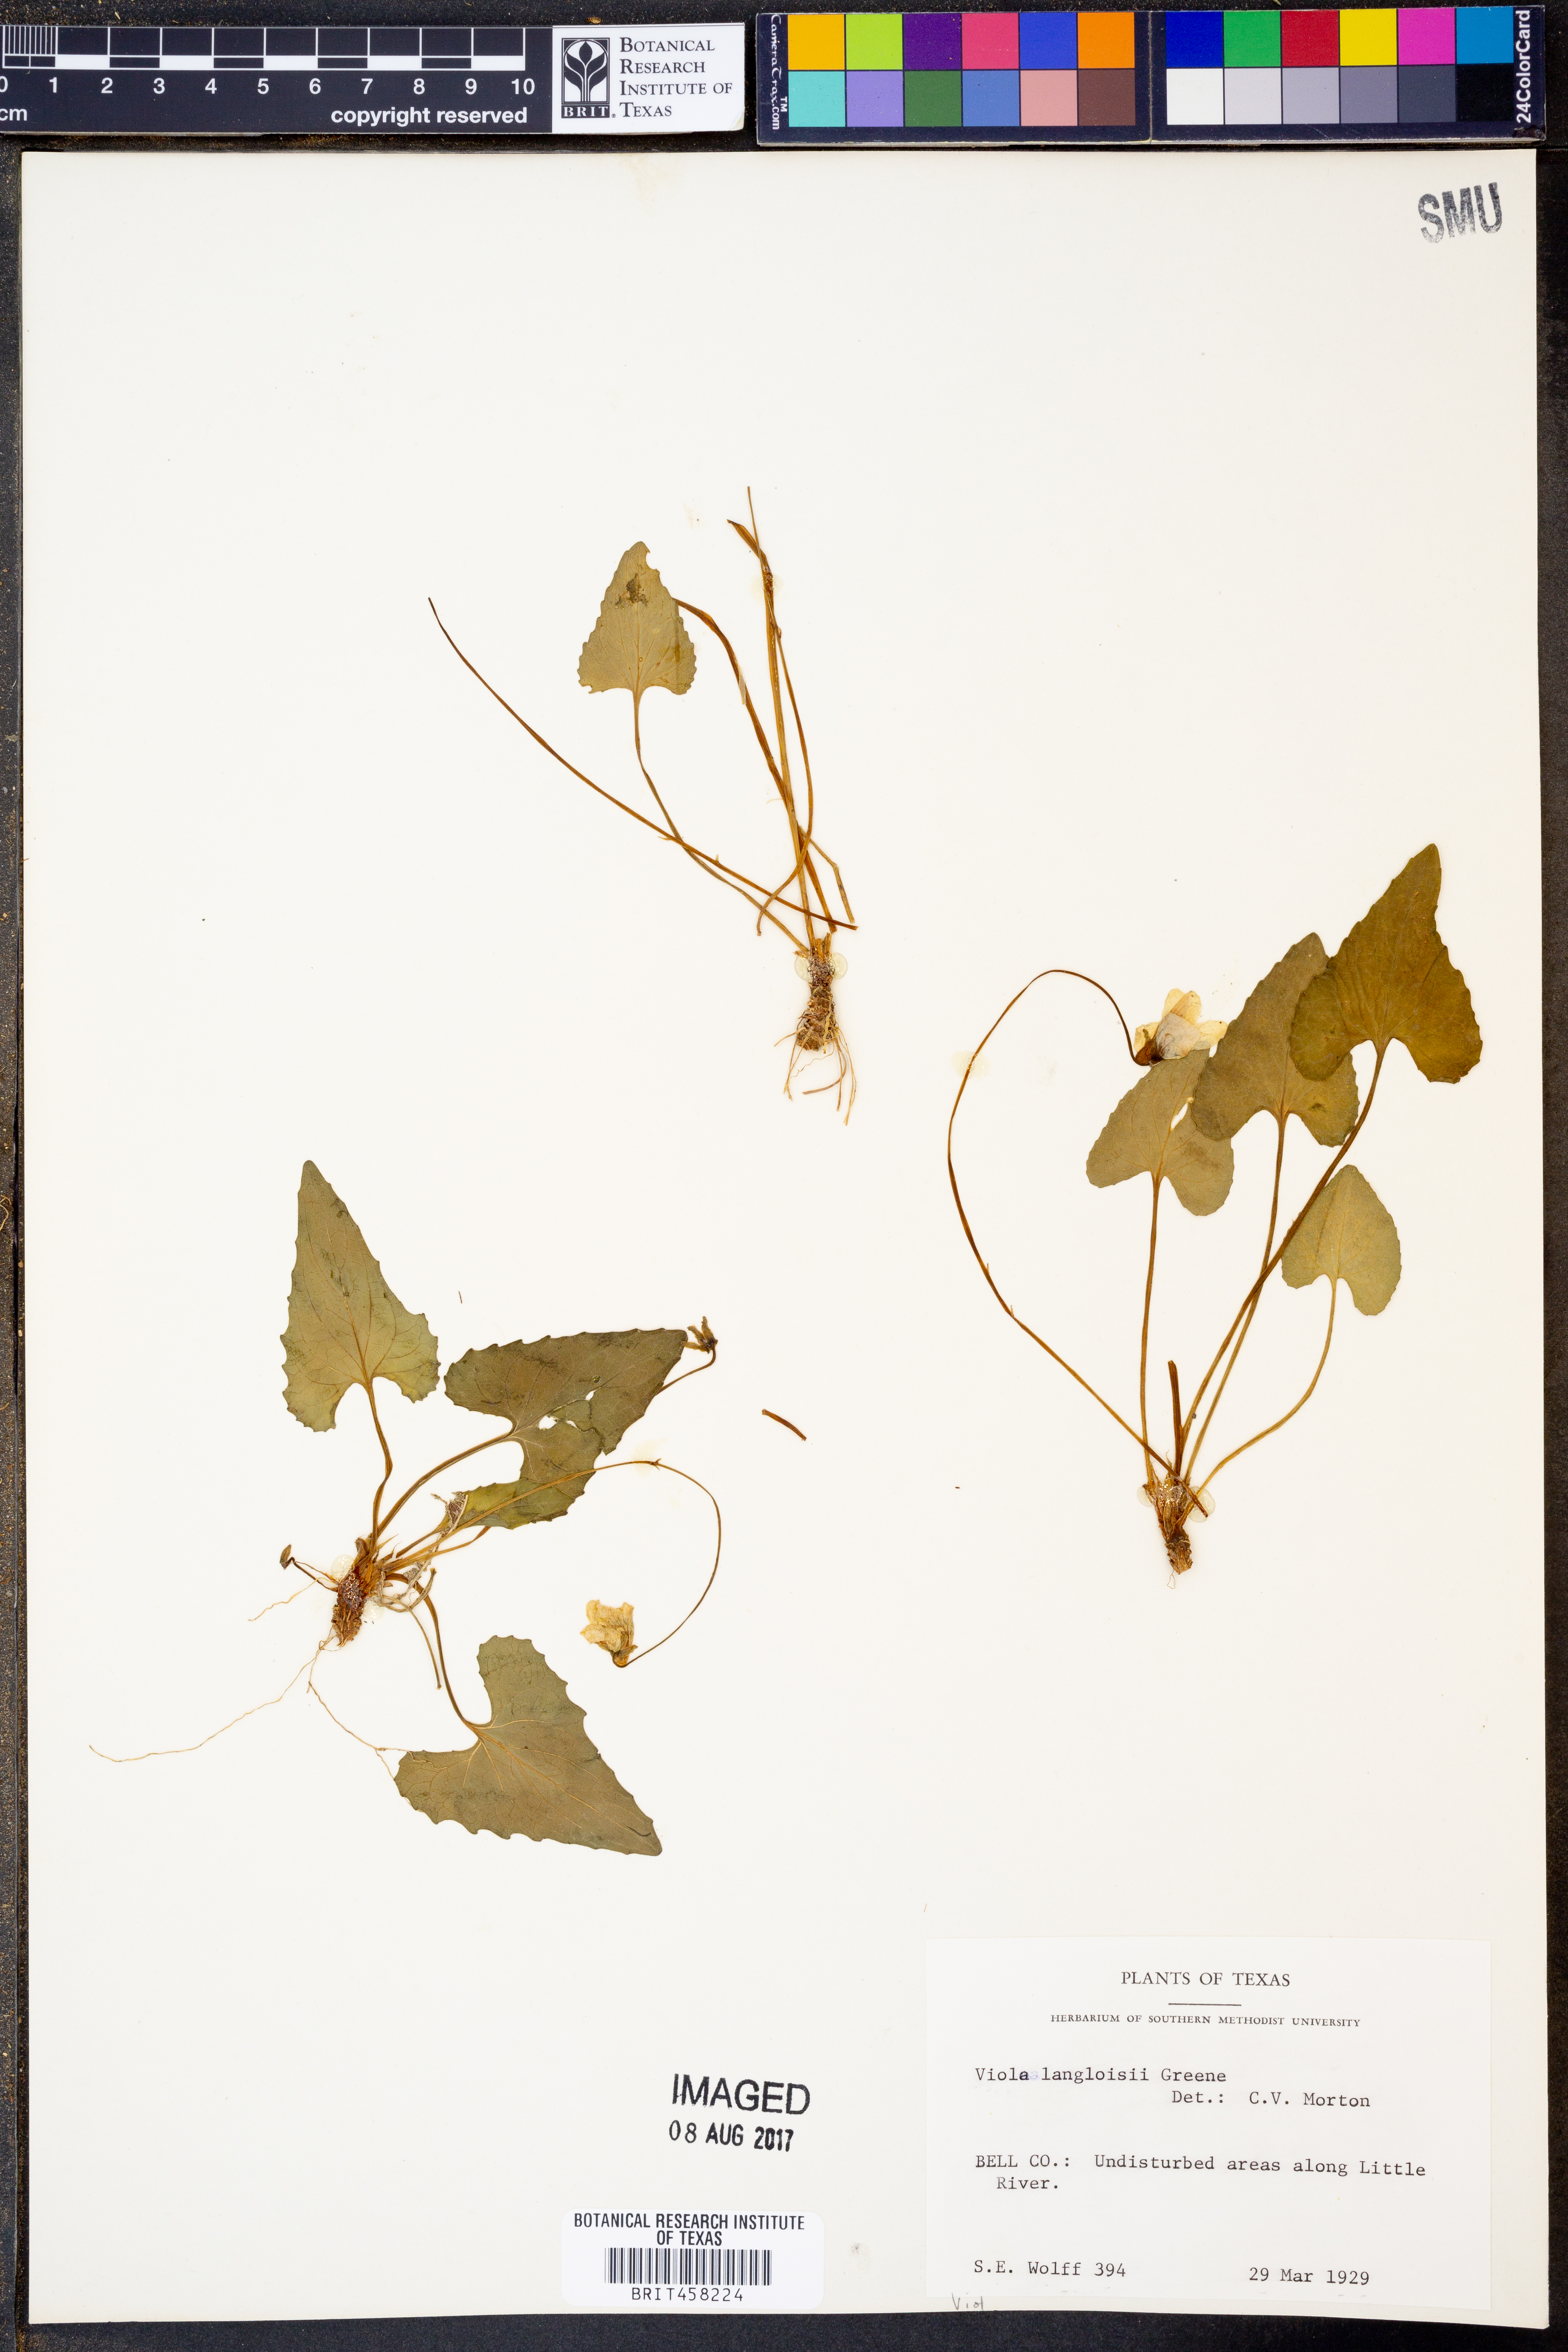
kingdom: Plantae
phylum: Tracheophyta
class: Magnoliopsida
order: Malpighiales
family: Violaceae
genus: Viola
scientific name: Viola langloisii
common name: Langlois' violet
